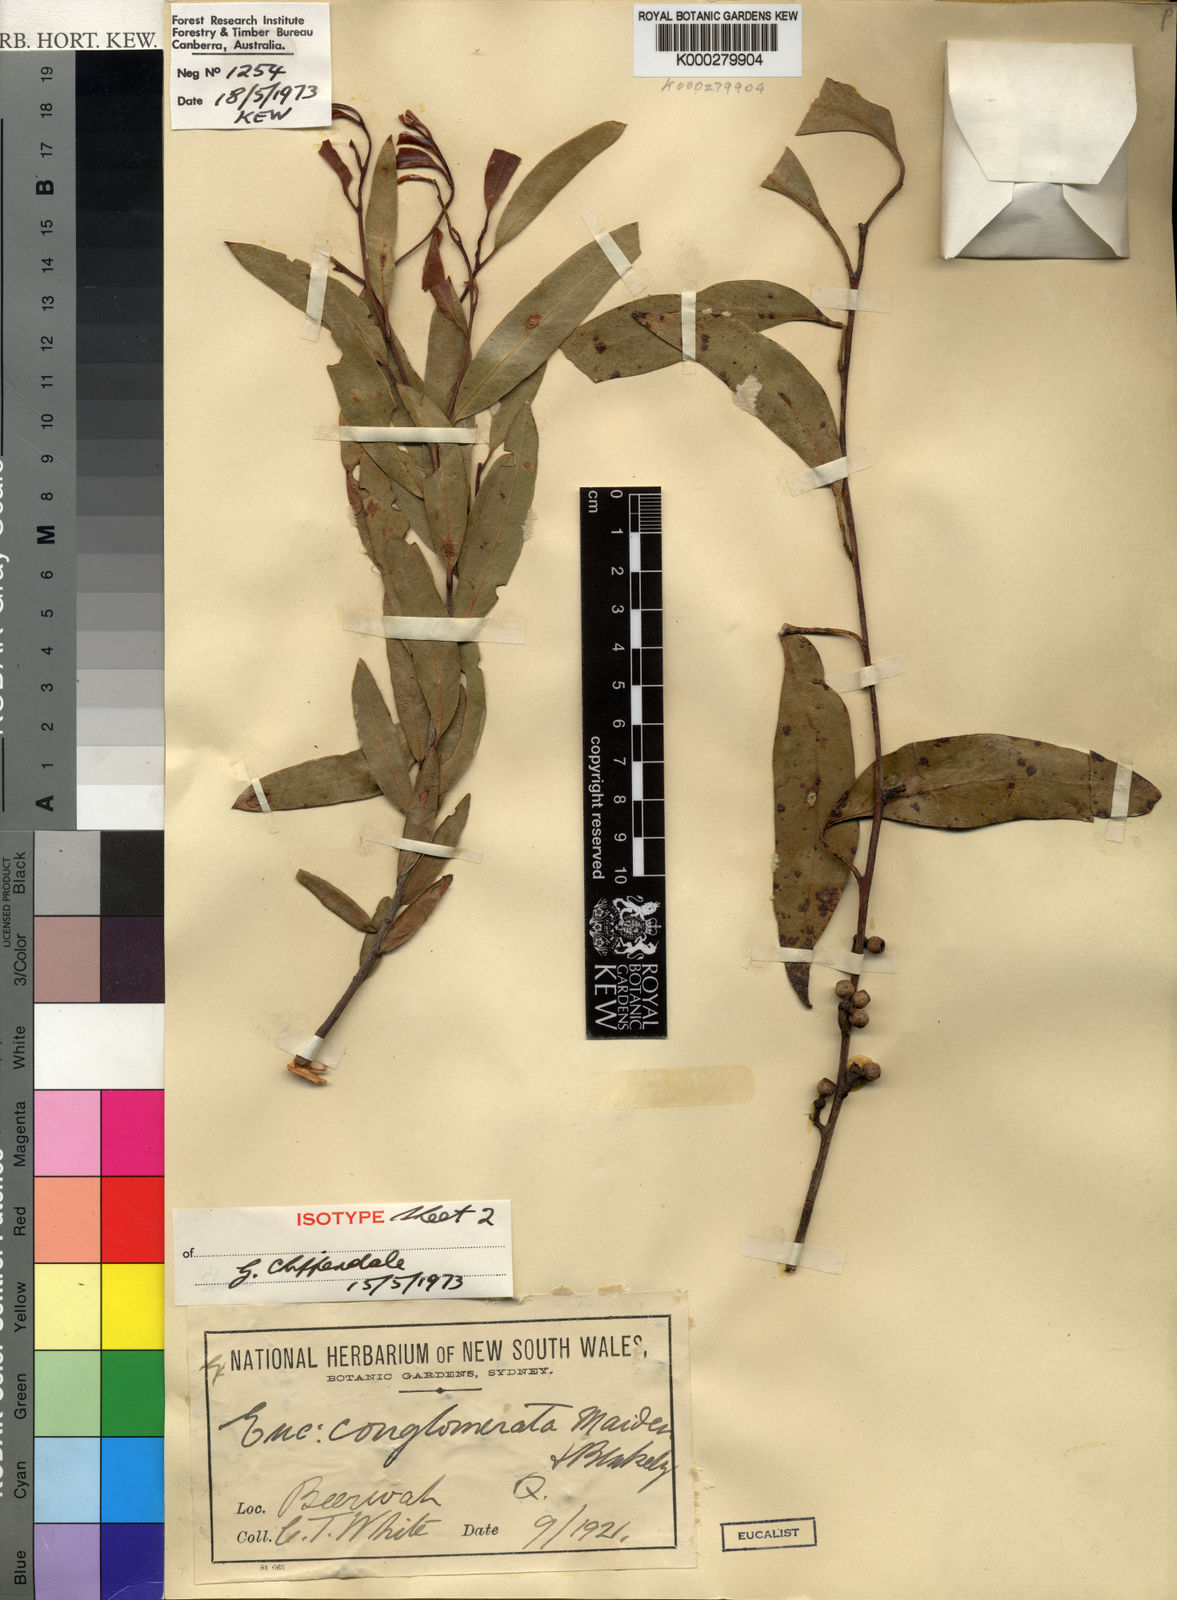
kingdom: Plantae
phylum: Tracheophyta
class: Magnoliopsida
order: Myrtales
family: Myrtaceae
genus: Eucalyptus
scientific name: Eucalyptus conglomerata
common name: Swamp stringybark
